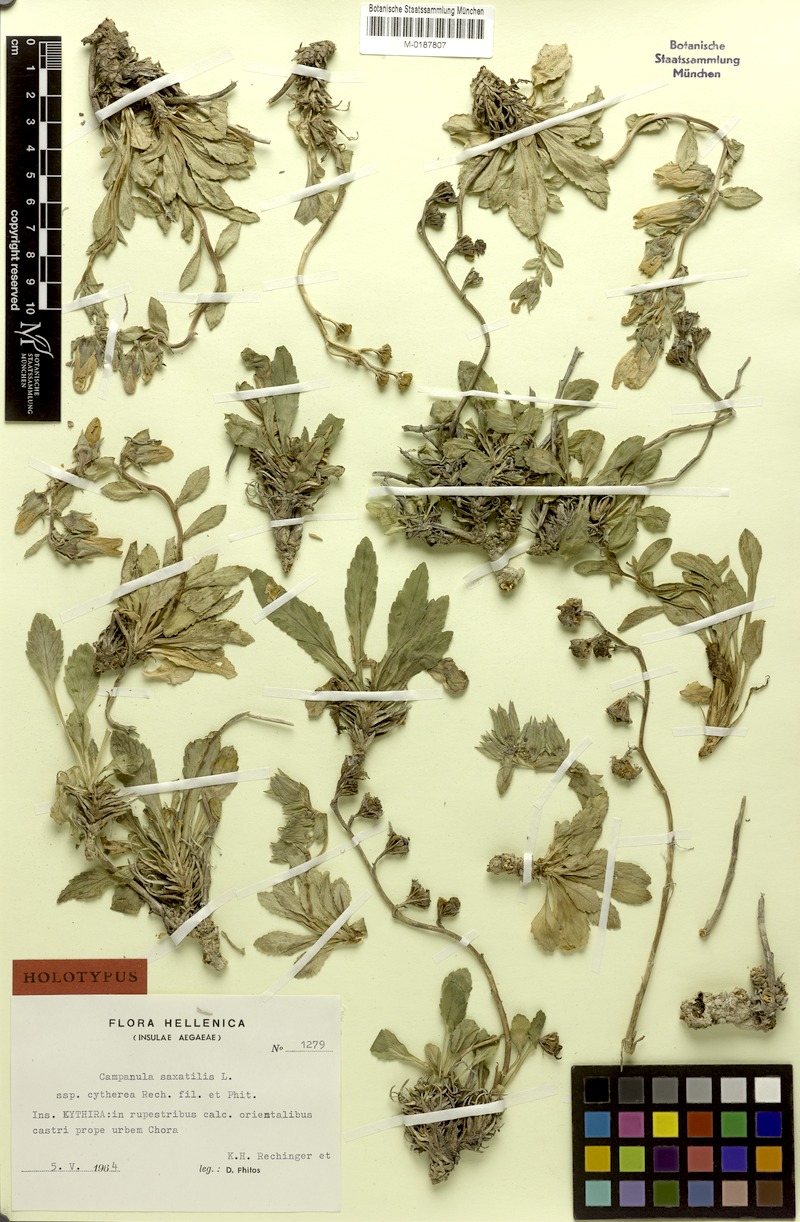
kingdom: Plantae
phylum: Tracheophyta
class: Magnoliopsida
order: Asterales
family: Campanulaceae
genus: Campanula
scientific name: Campanula saxatilis
